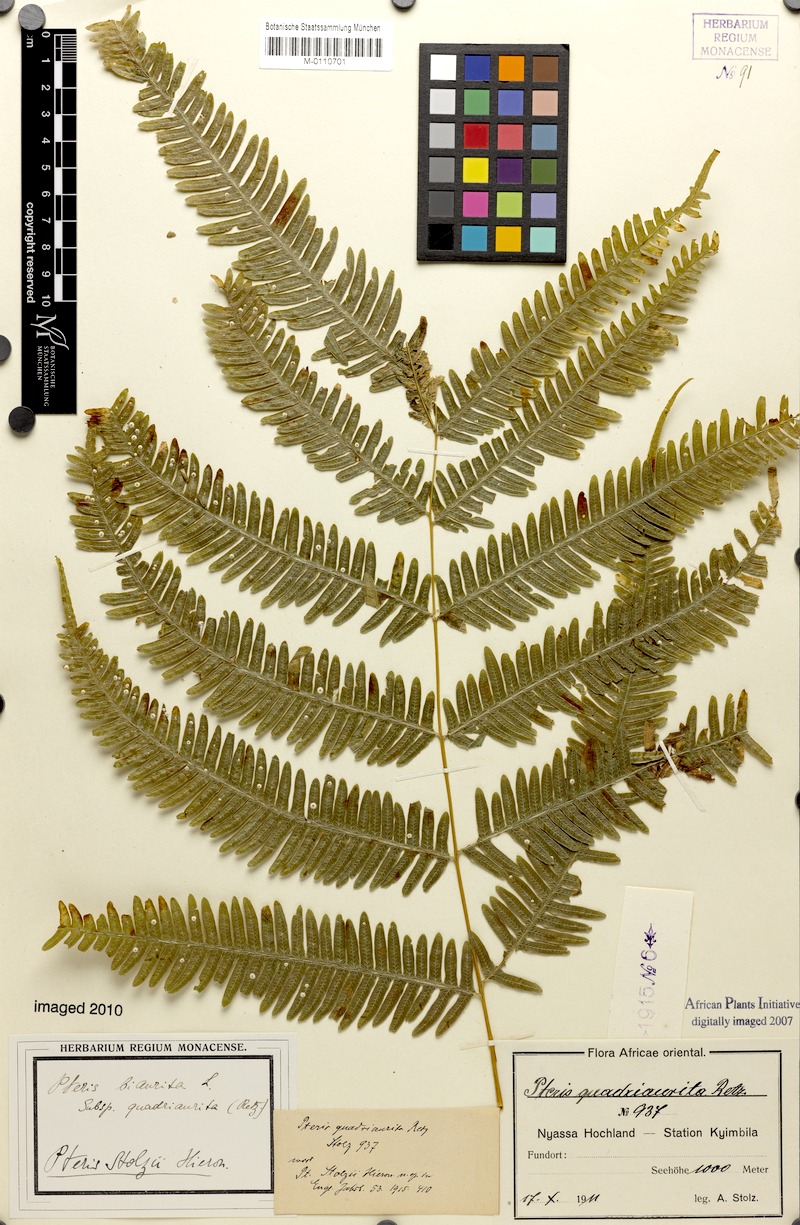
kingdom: Plantae
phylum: Tracheophyta
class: Polypodiopsida
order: Polypodiales
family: Pteridaceae
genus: Pteris
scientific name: Pteris friesii
